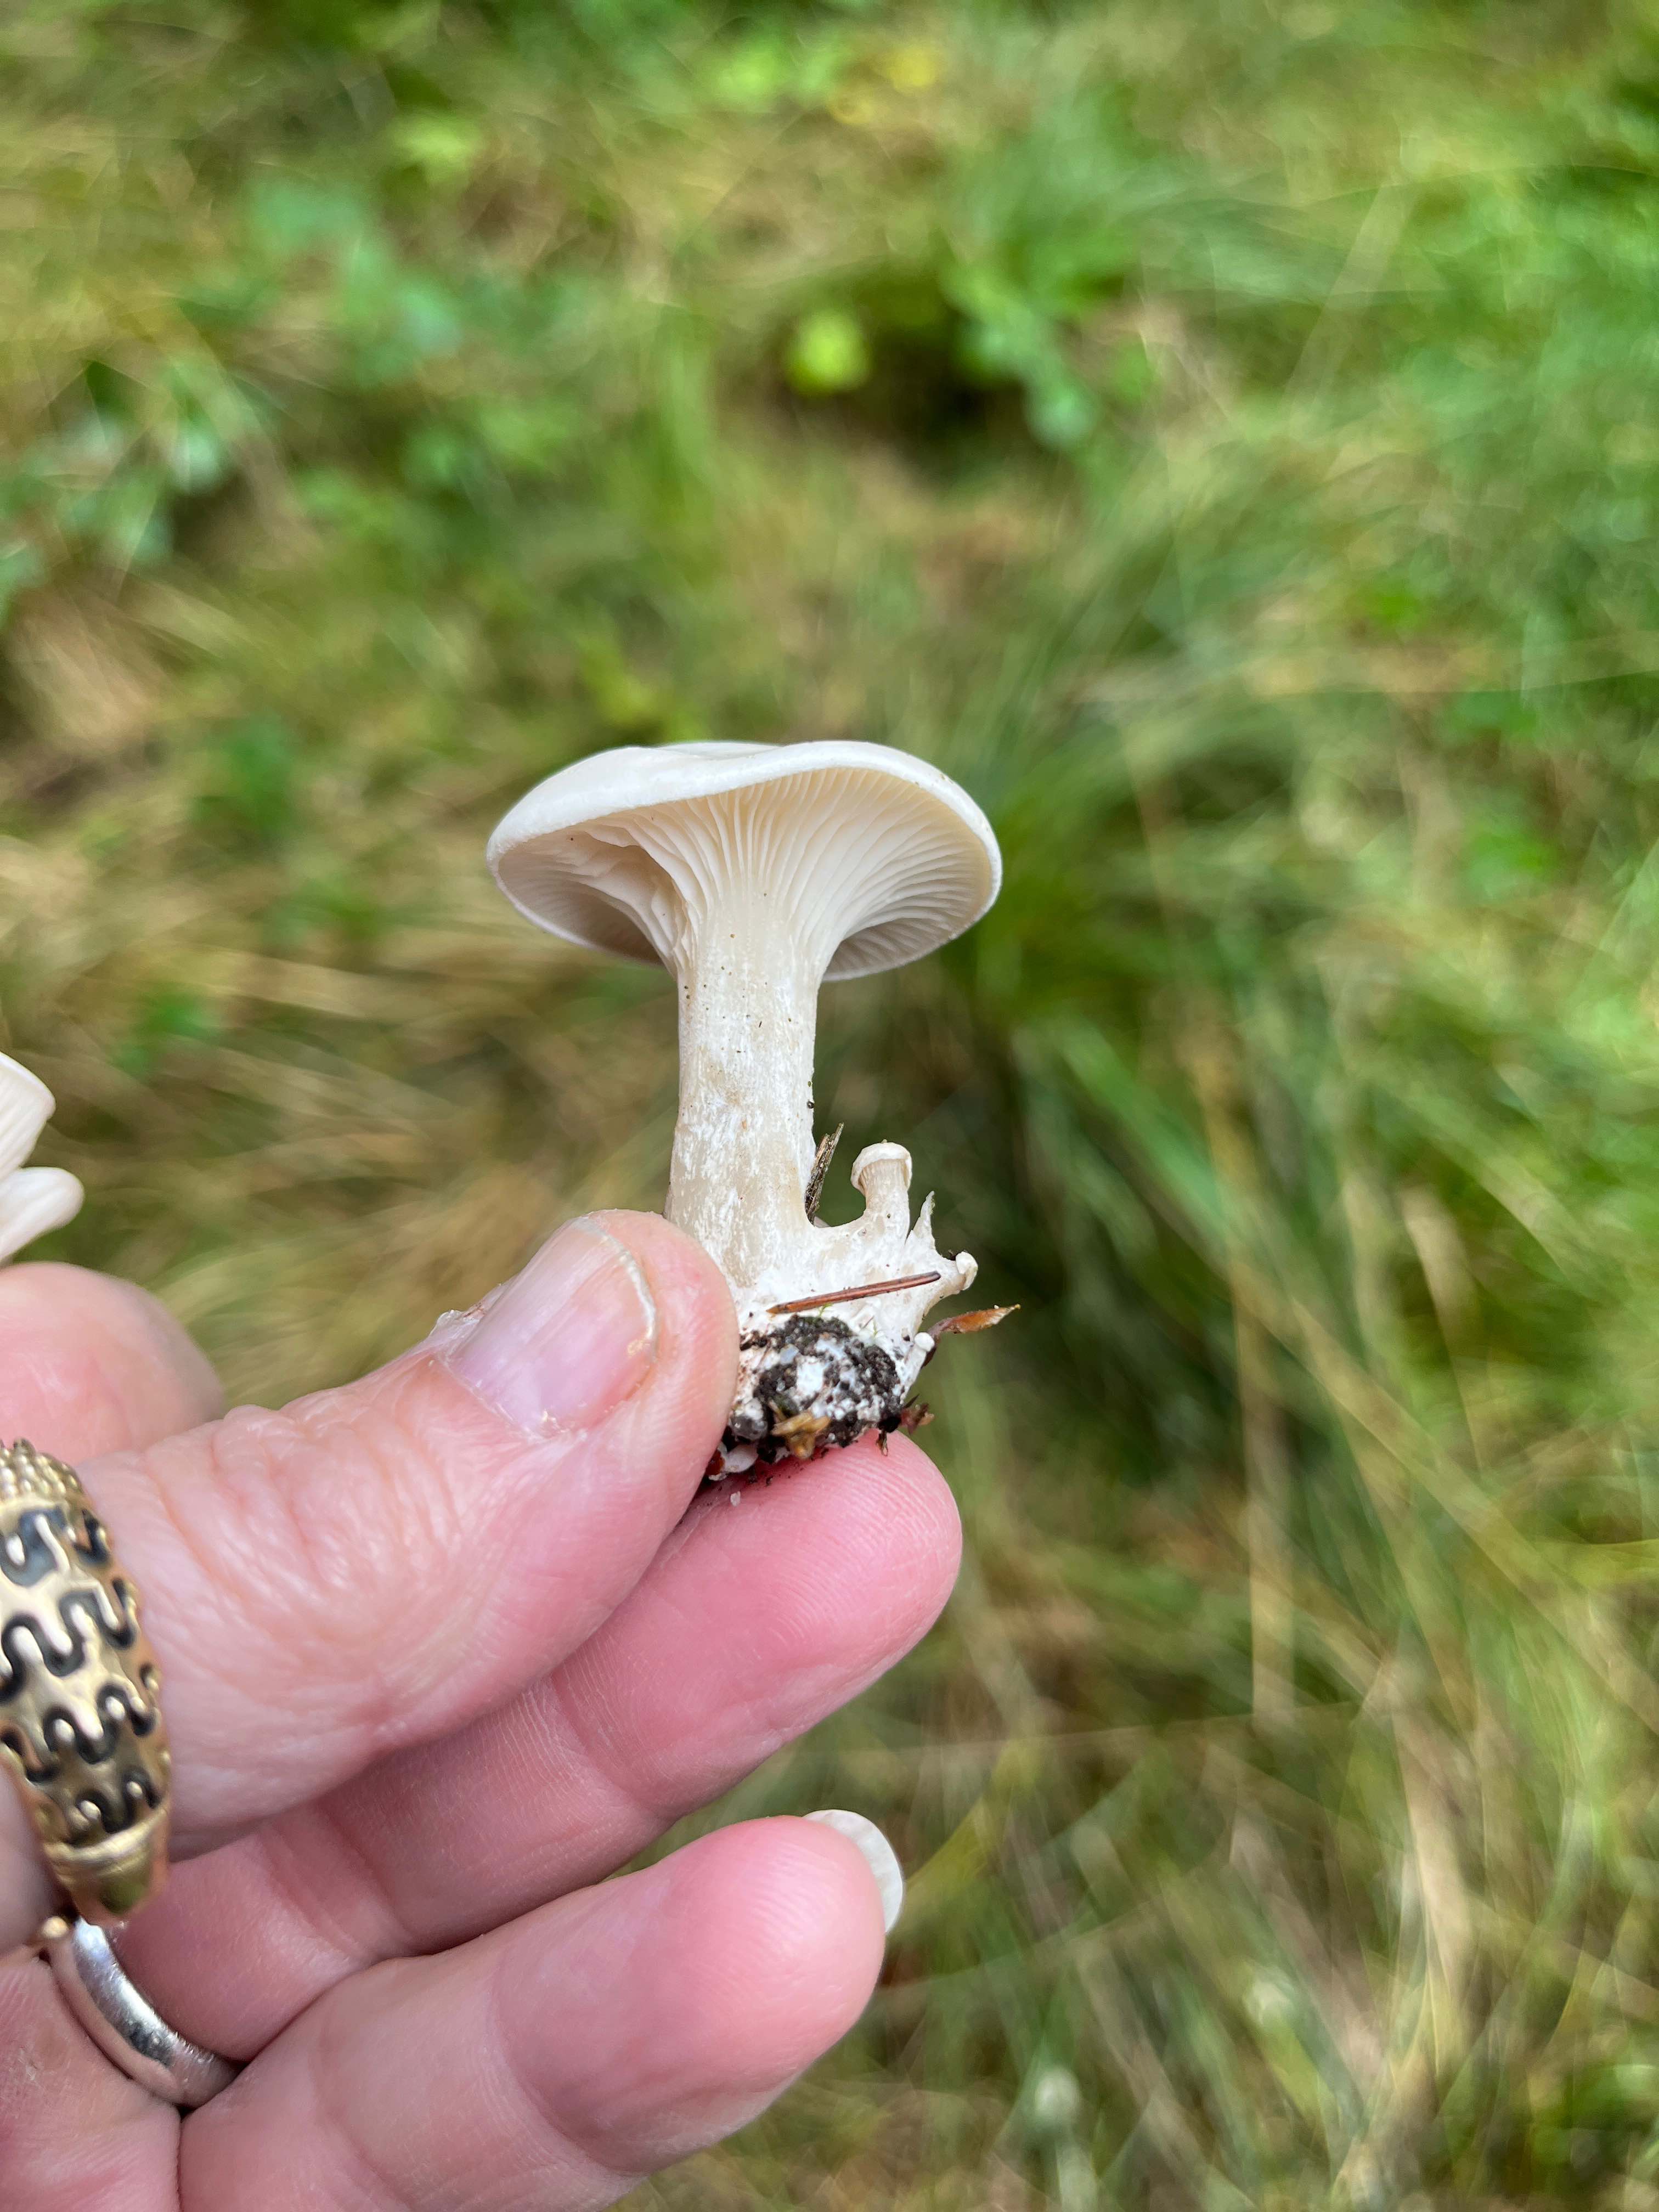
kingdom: Fungi
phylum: Basidiomycota
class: Agaricomycetes
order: Agaricales
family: Entolomataceae
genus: Clitopilus
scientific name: Clitopilus prunulus
